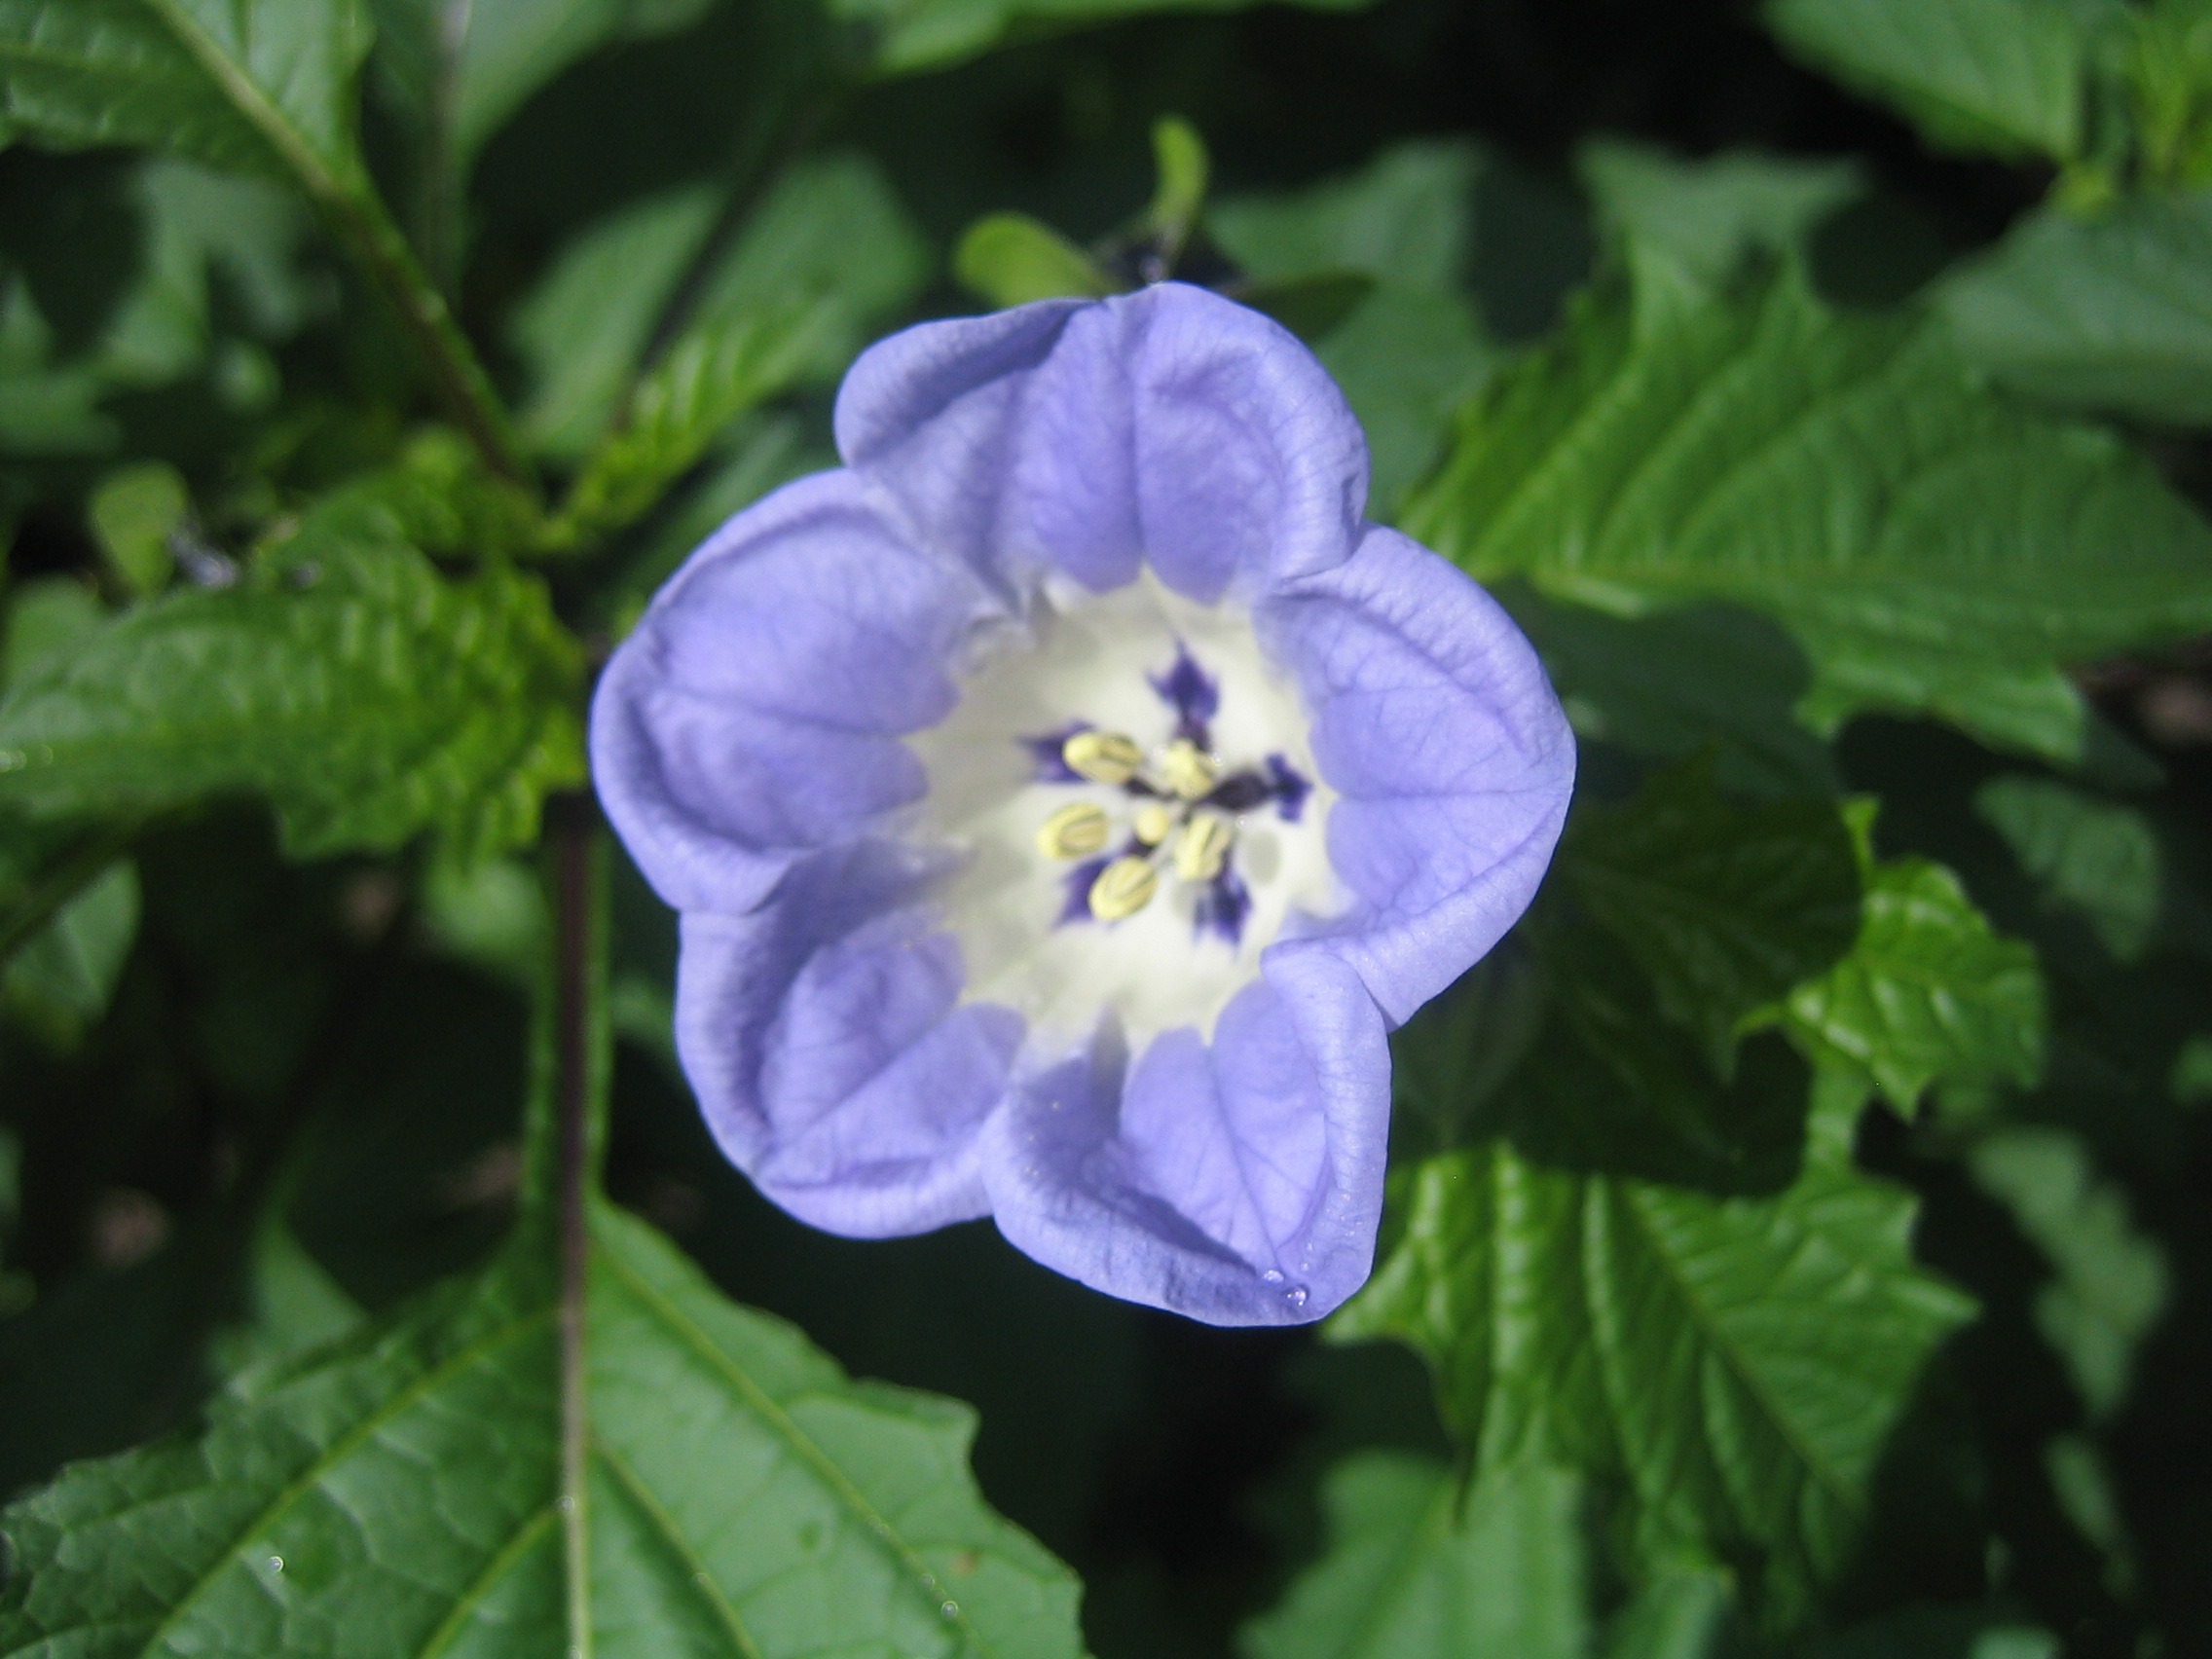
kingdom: Plantae
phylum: Tracheophyta
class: Magnoliopsida
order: Solanales
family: Solanaceae
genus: Nicandra
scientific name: Nicandra physalodes
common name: Kantbæger
